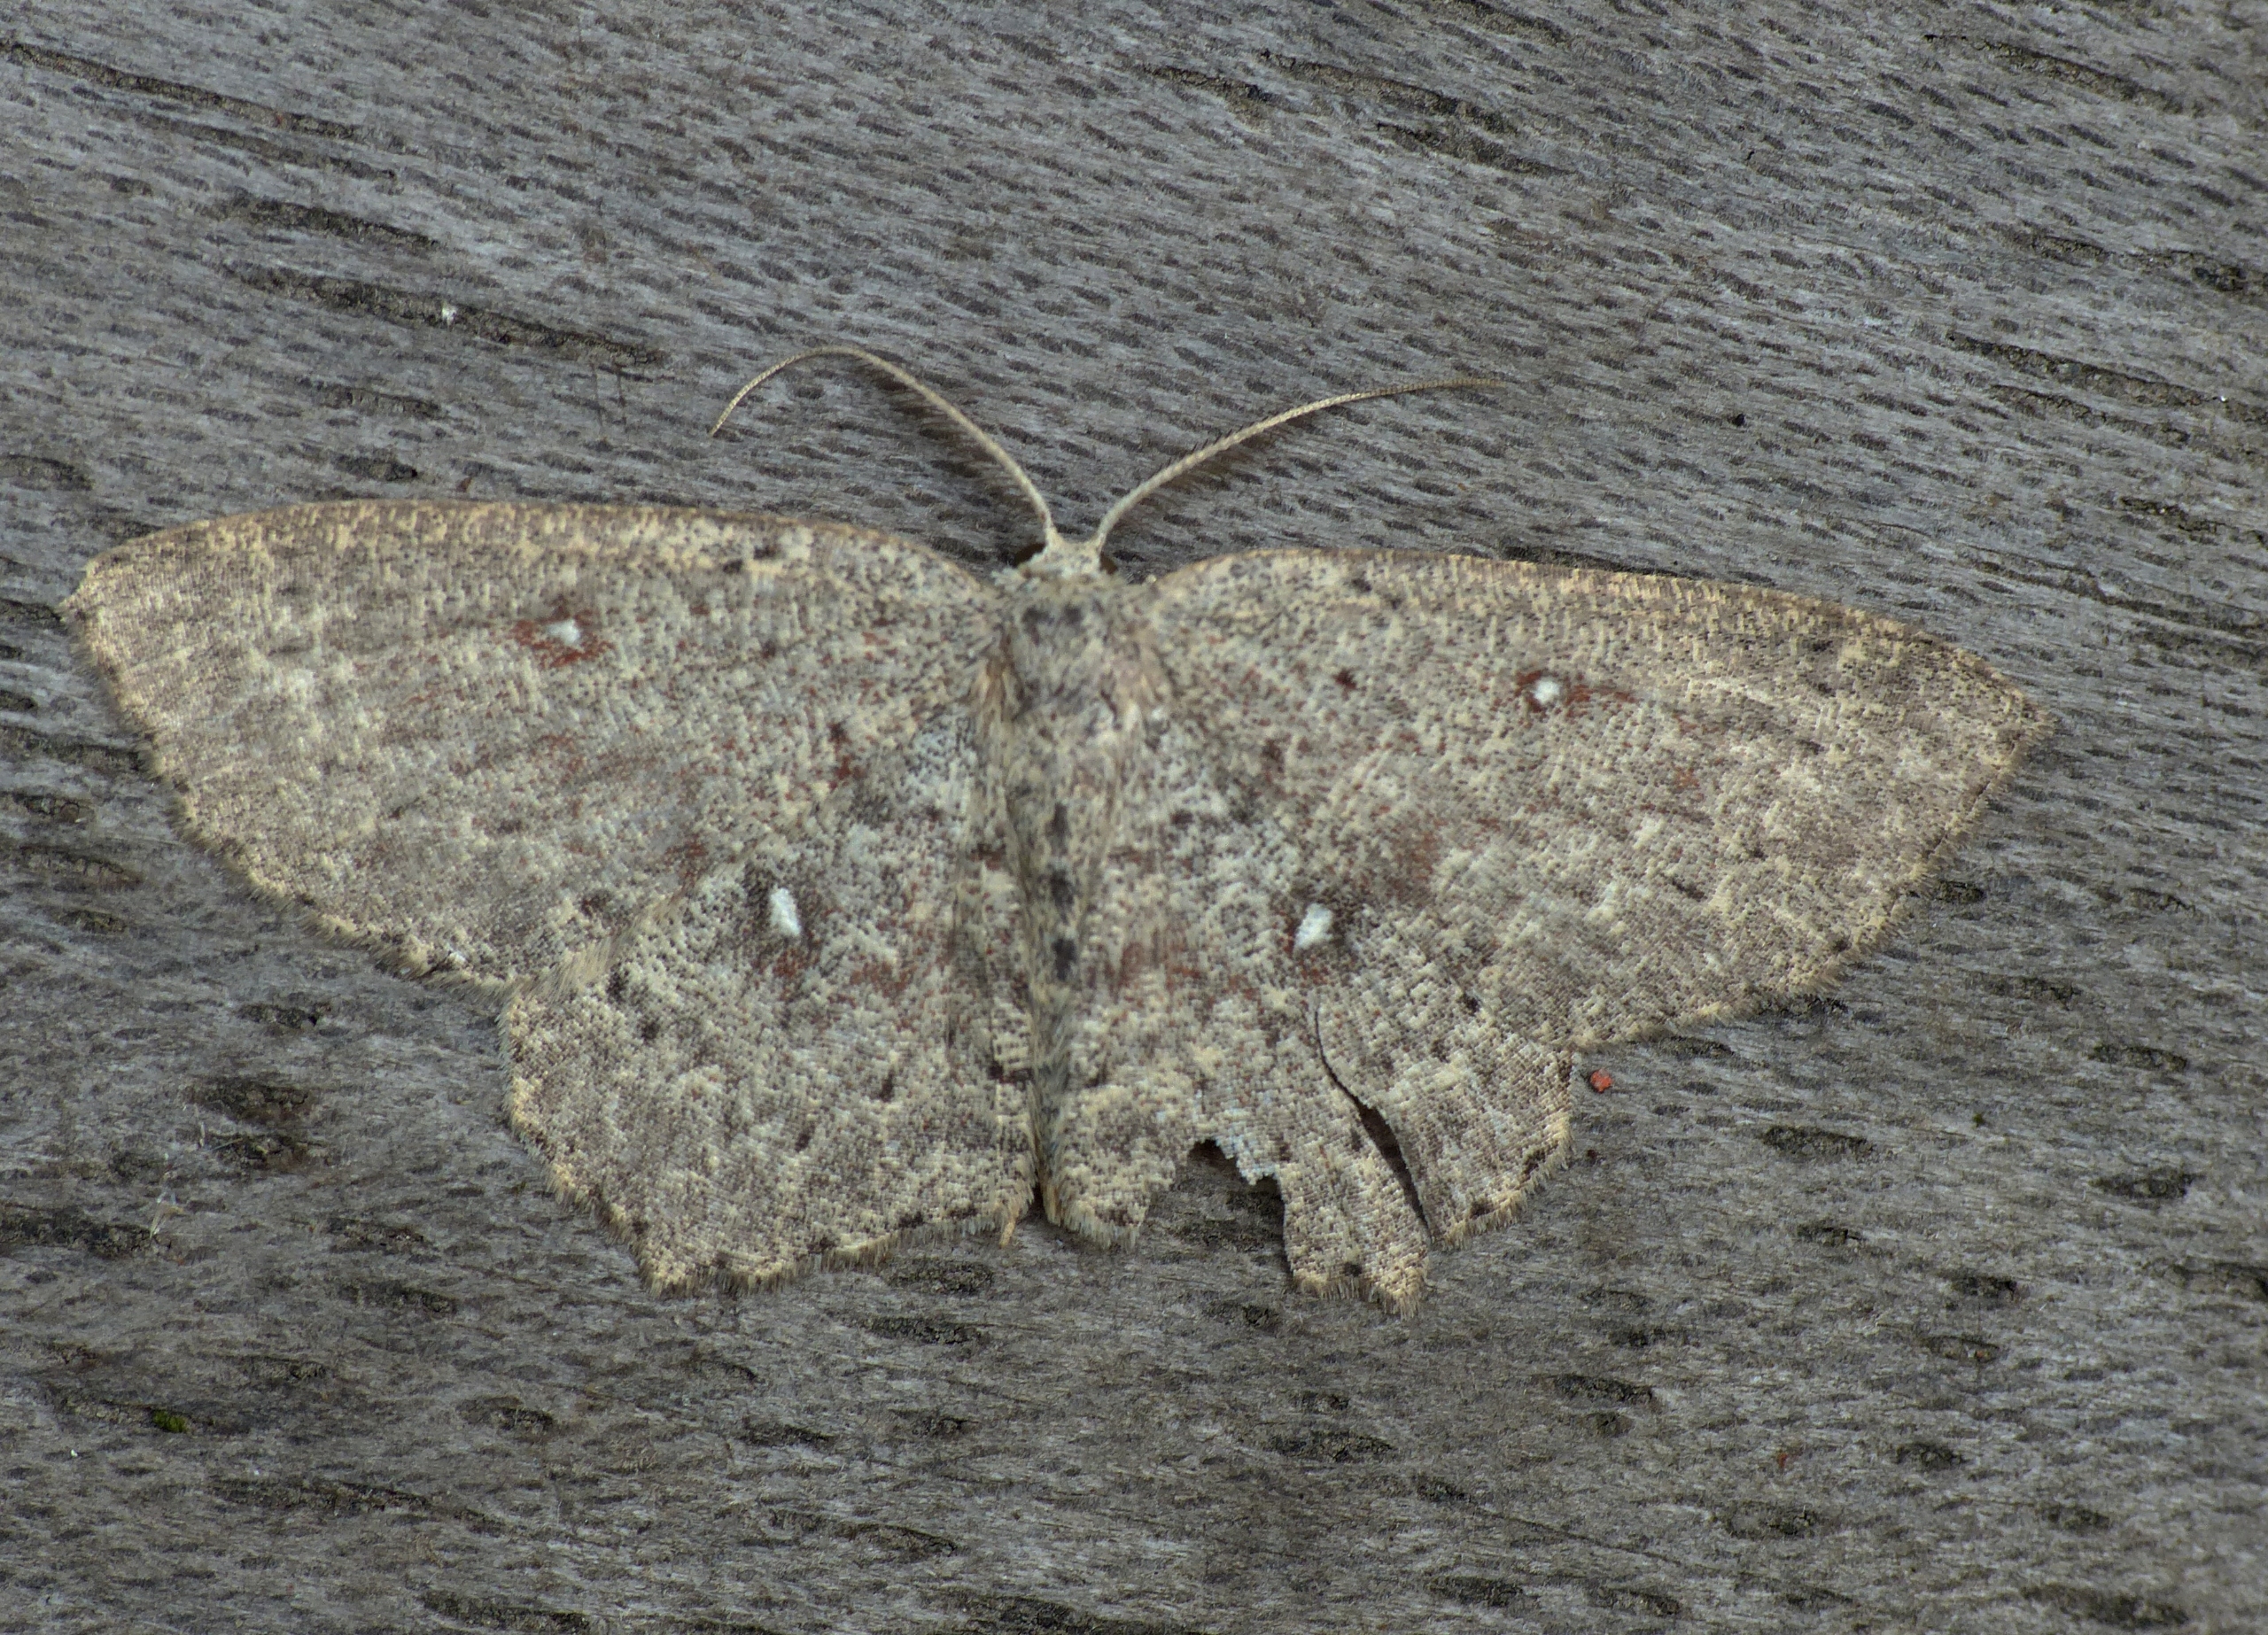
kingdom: Animalia
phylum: Arthropoda
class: Insecta
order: Lepidoptera
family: Geometridae
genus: Cyclophora
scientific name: Cyclophora pendularia
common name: Pileringmåler
